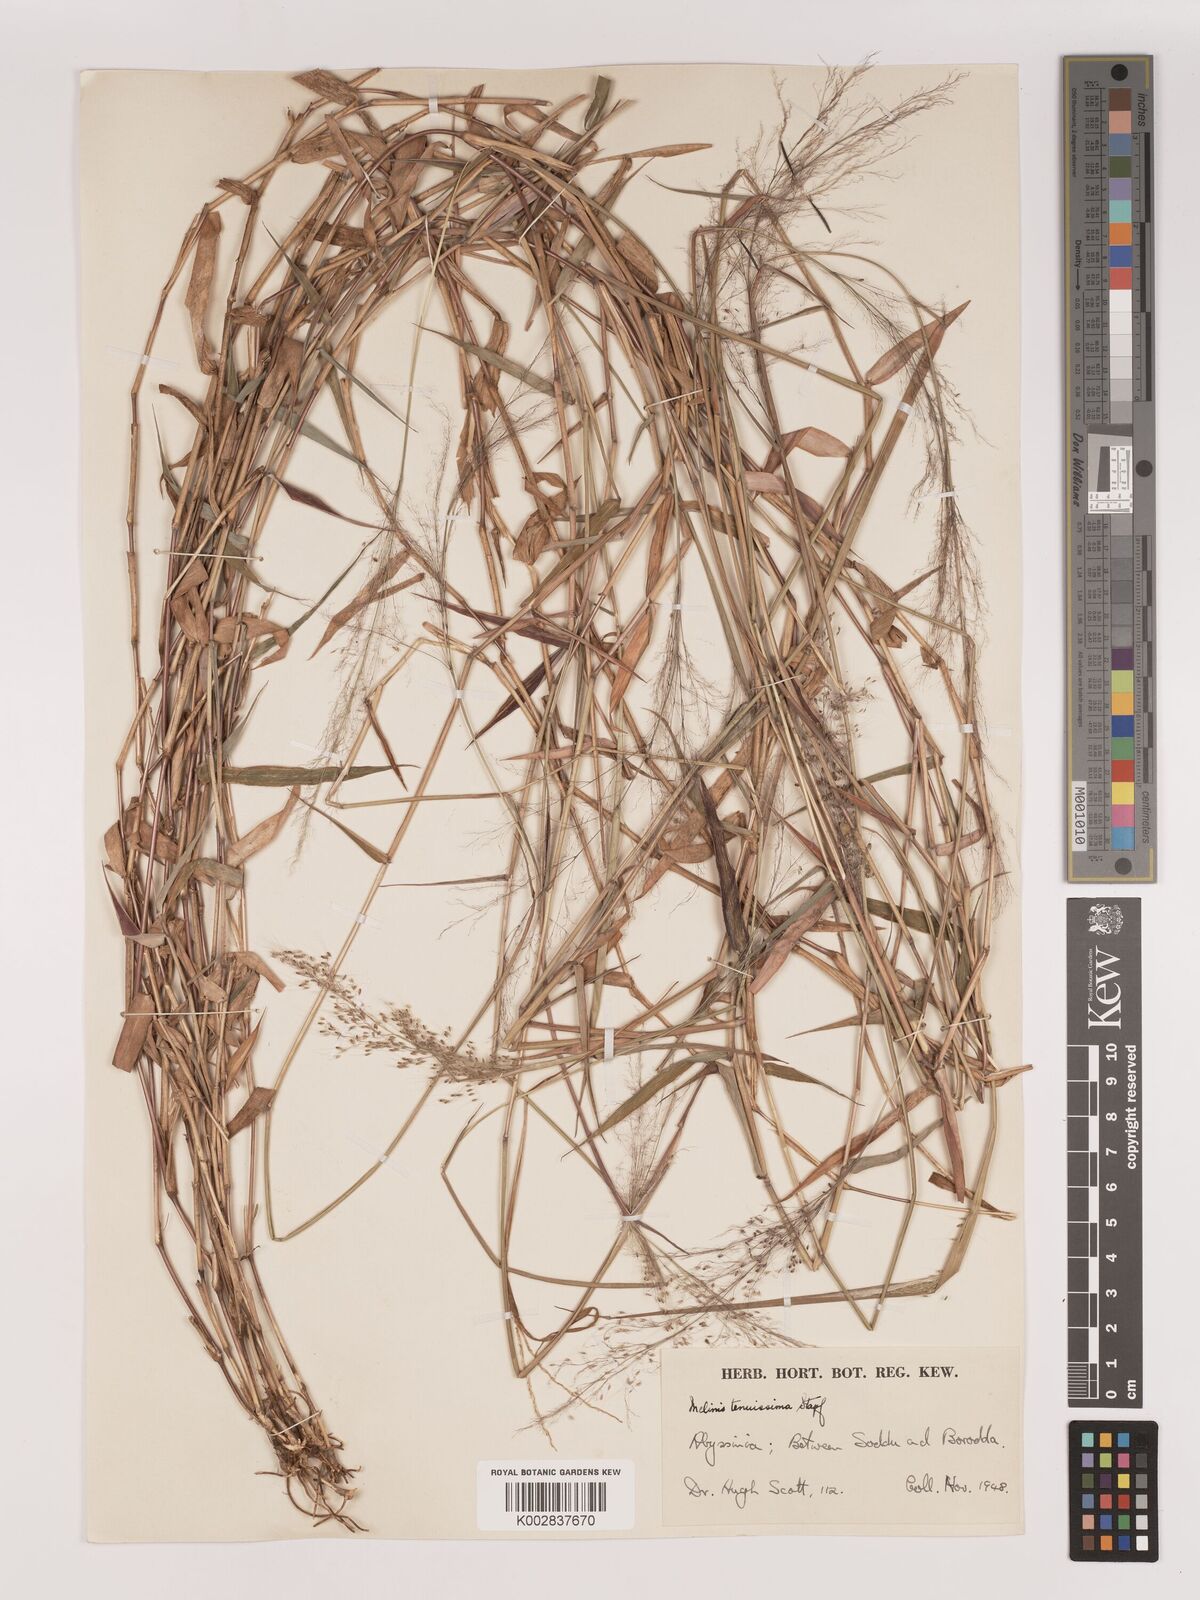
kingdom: Plantae
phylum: Tracheophyta
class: Liliopsida
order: Poales
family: Poaceae
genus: Melinis
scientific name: Melinis tenuissima
